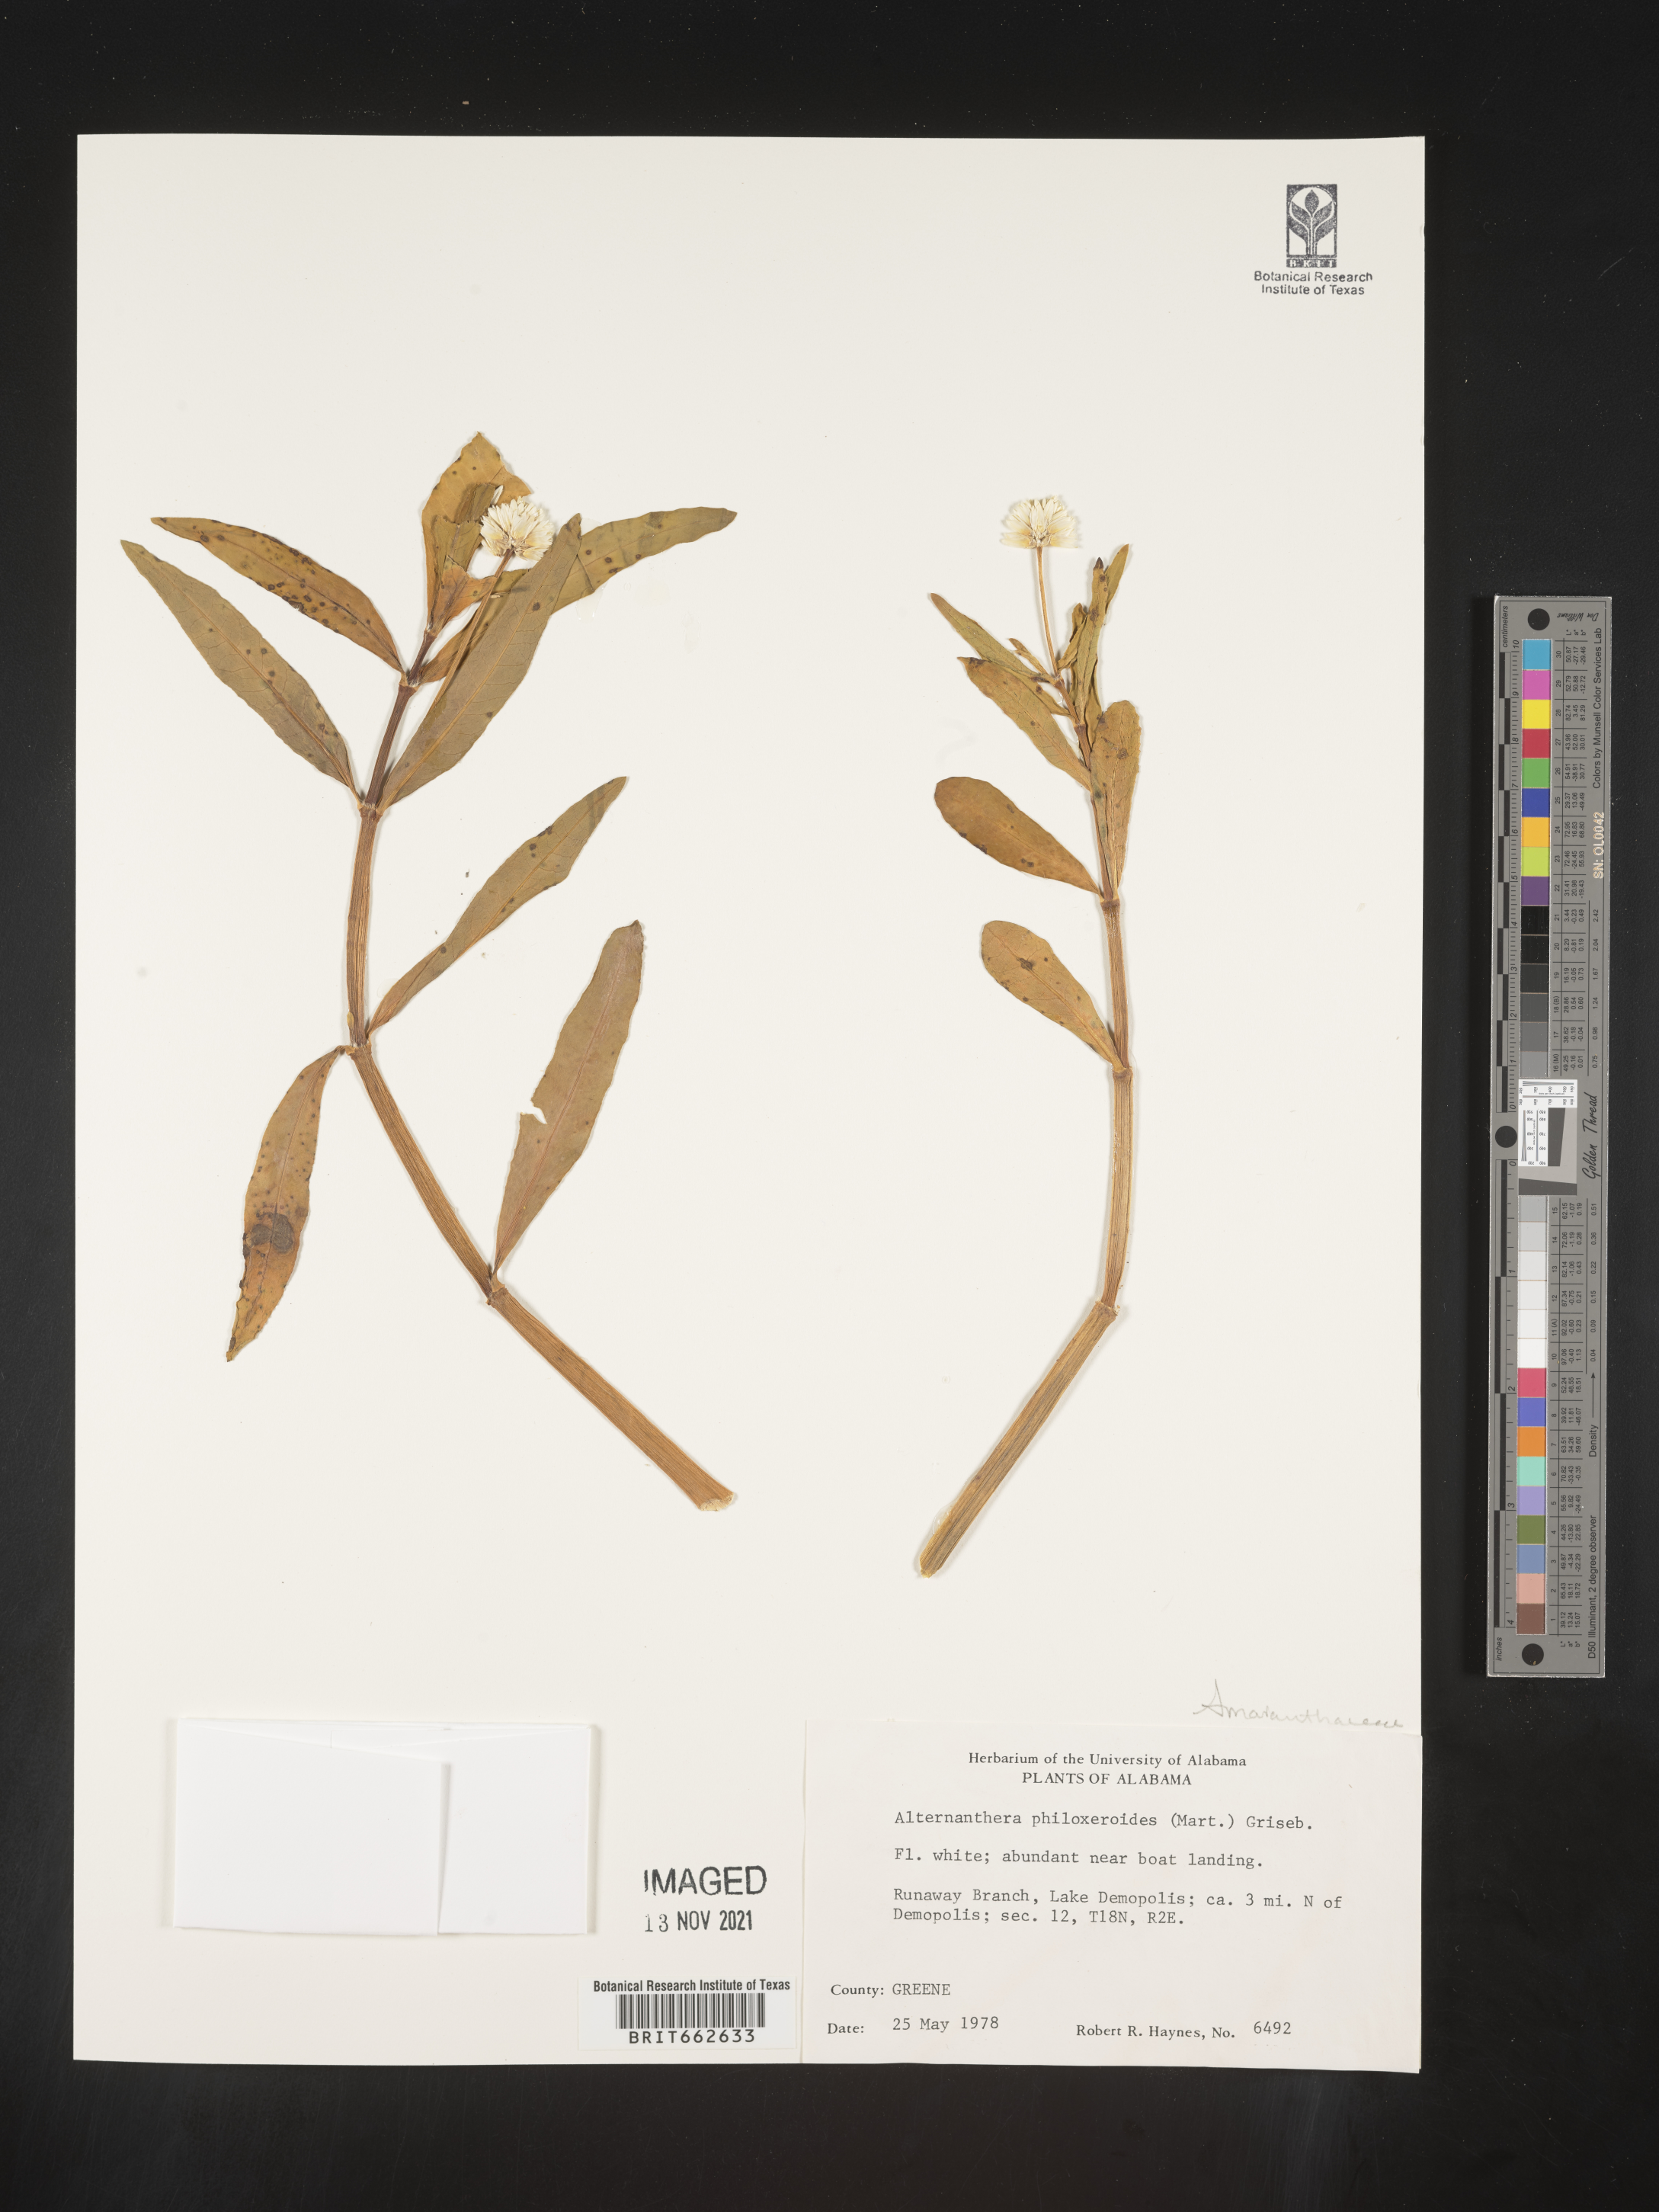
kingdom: Plantae
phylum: Tracheophyta
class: Magnoliopsida
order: Caryophyllales
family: Amaranthaceae
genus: Alternanthera
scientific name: Alternanthera philoxeroides
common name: Alligatorweed
